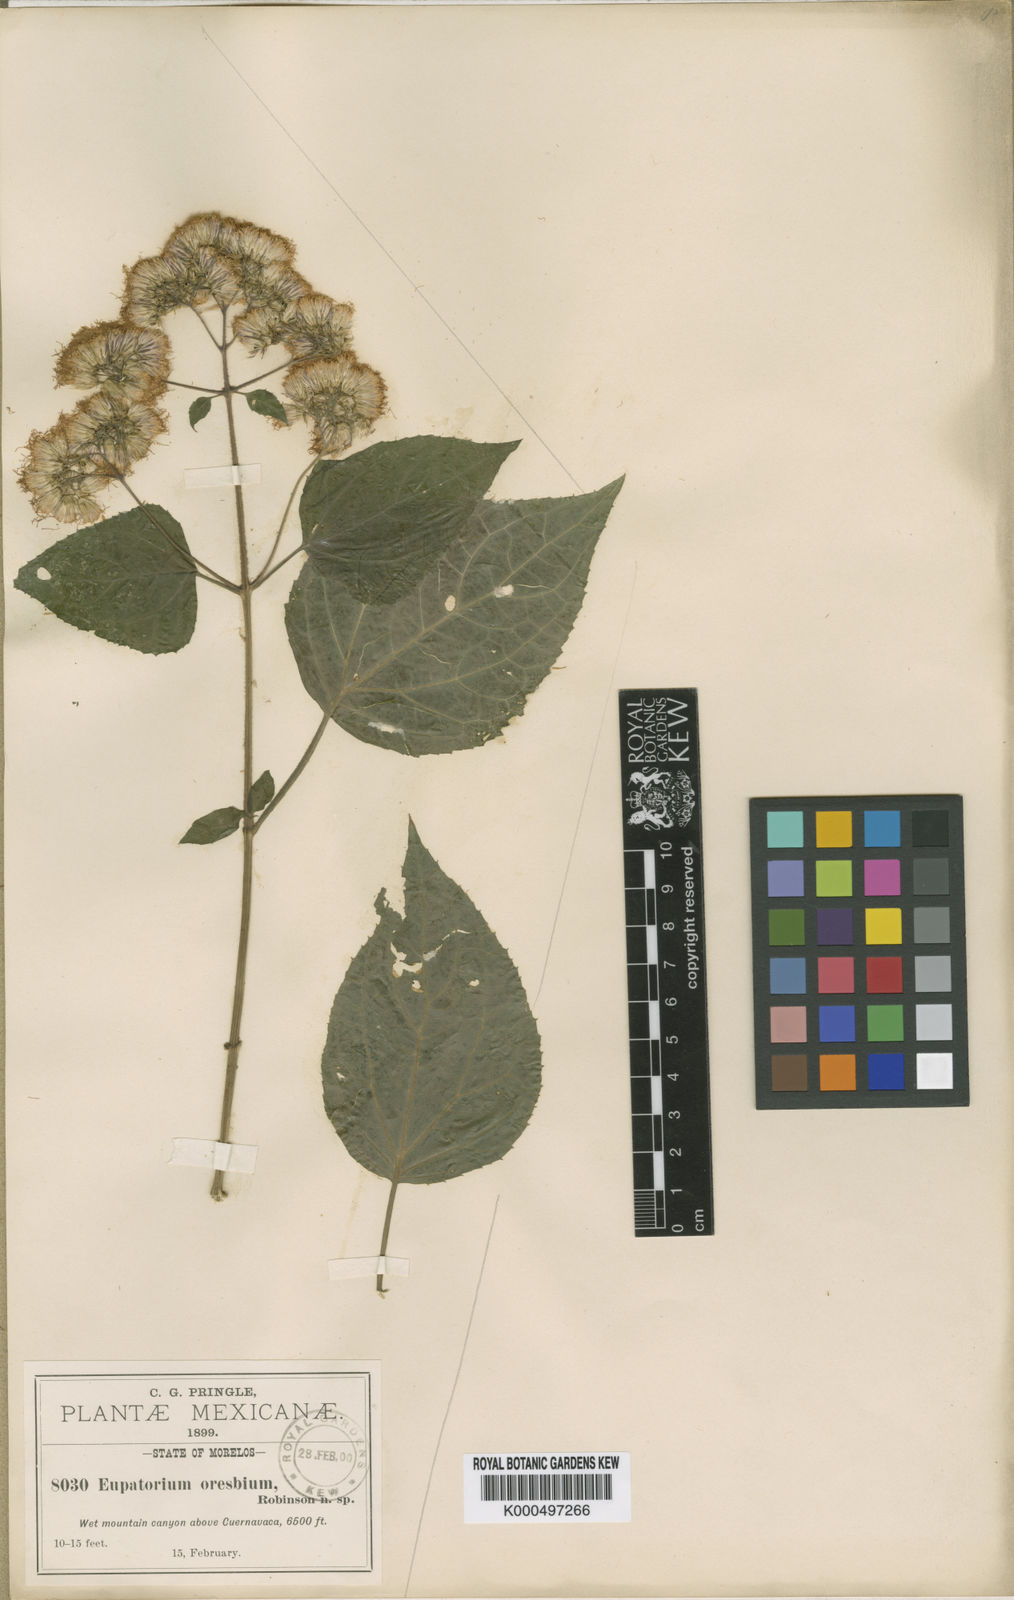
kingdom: Plantae
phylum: Tracheophyta
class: Magnoliopsida
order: Asterales
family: Asteraceae
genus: Bartlettina
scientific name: Bartlettina oresbia
